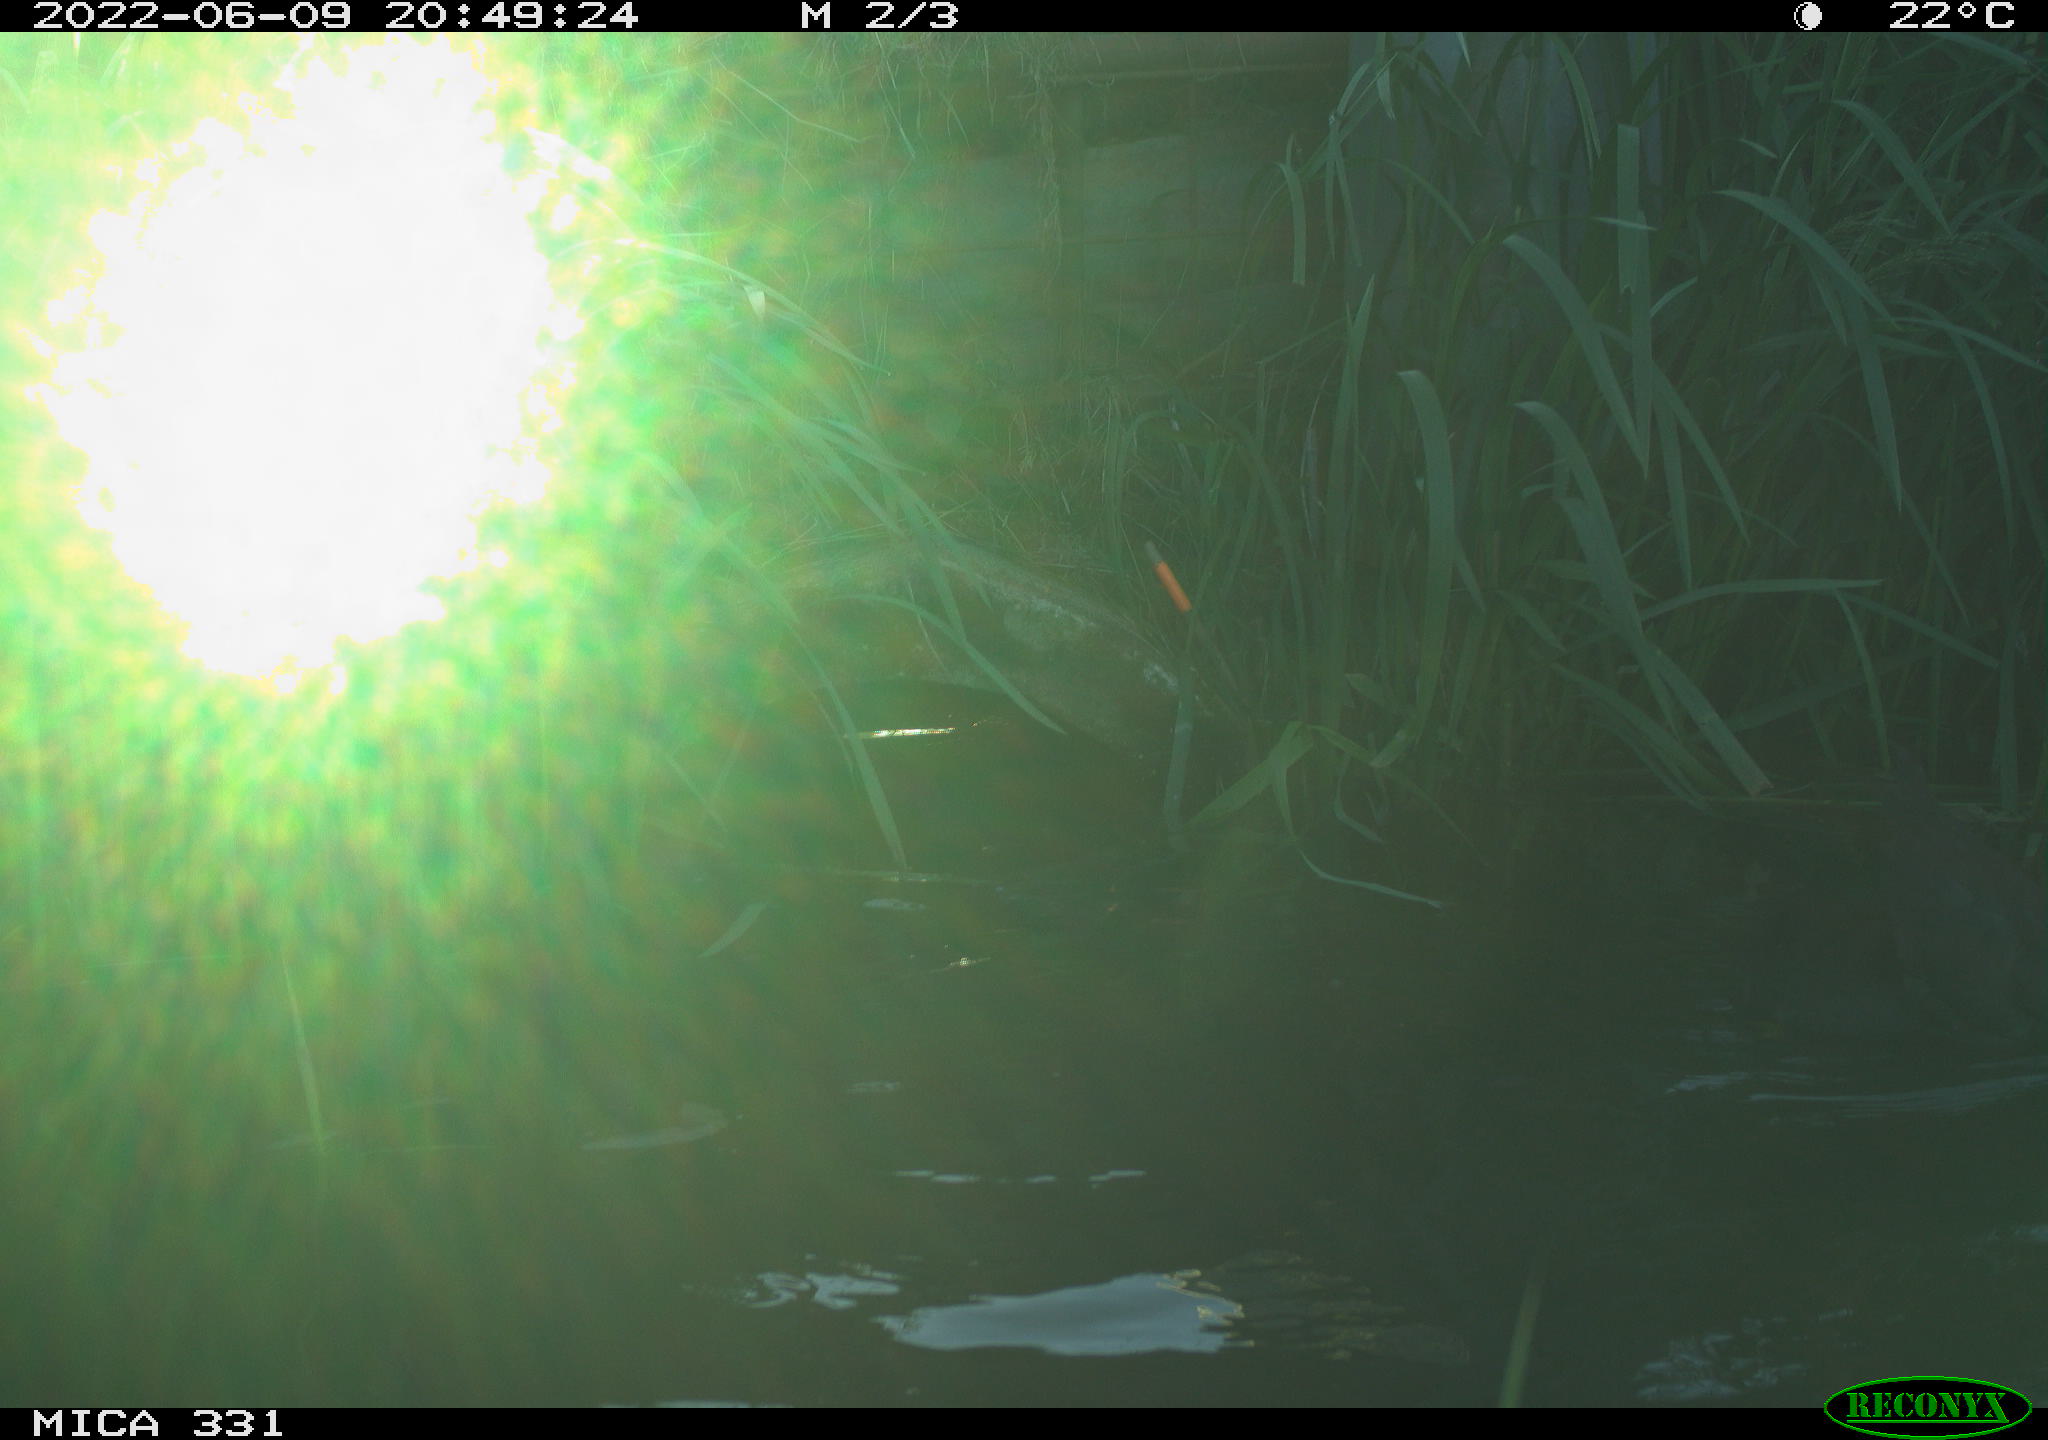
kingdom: Animalia
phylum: Chordata
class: Aves
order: Gruiformes
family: Rallidae
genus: Fulica
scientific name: Fulica atra
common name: Eurasian coot
